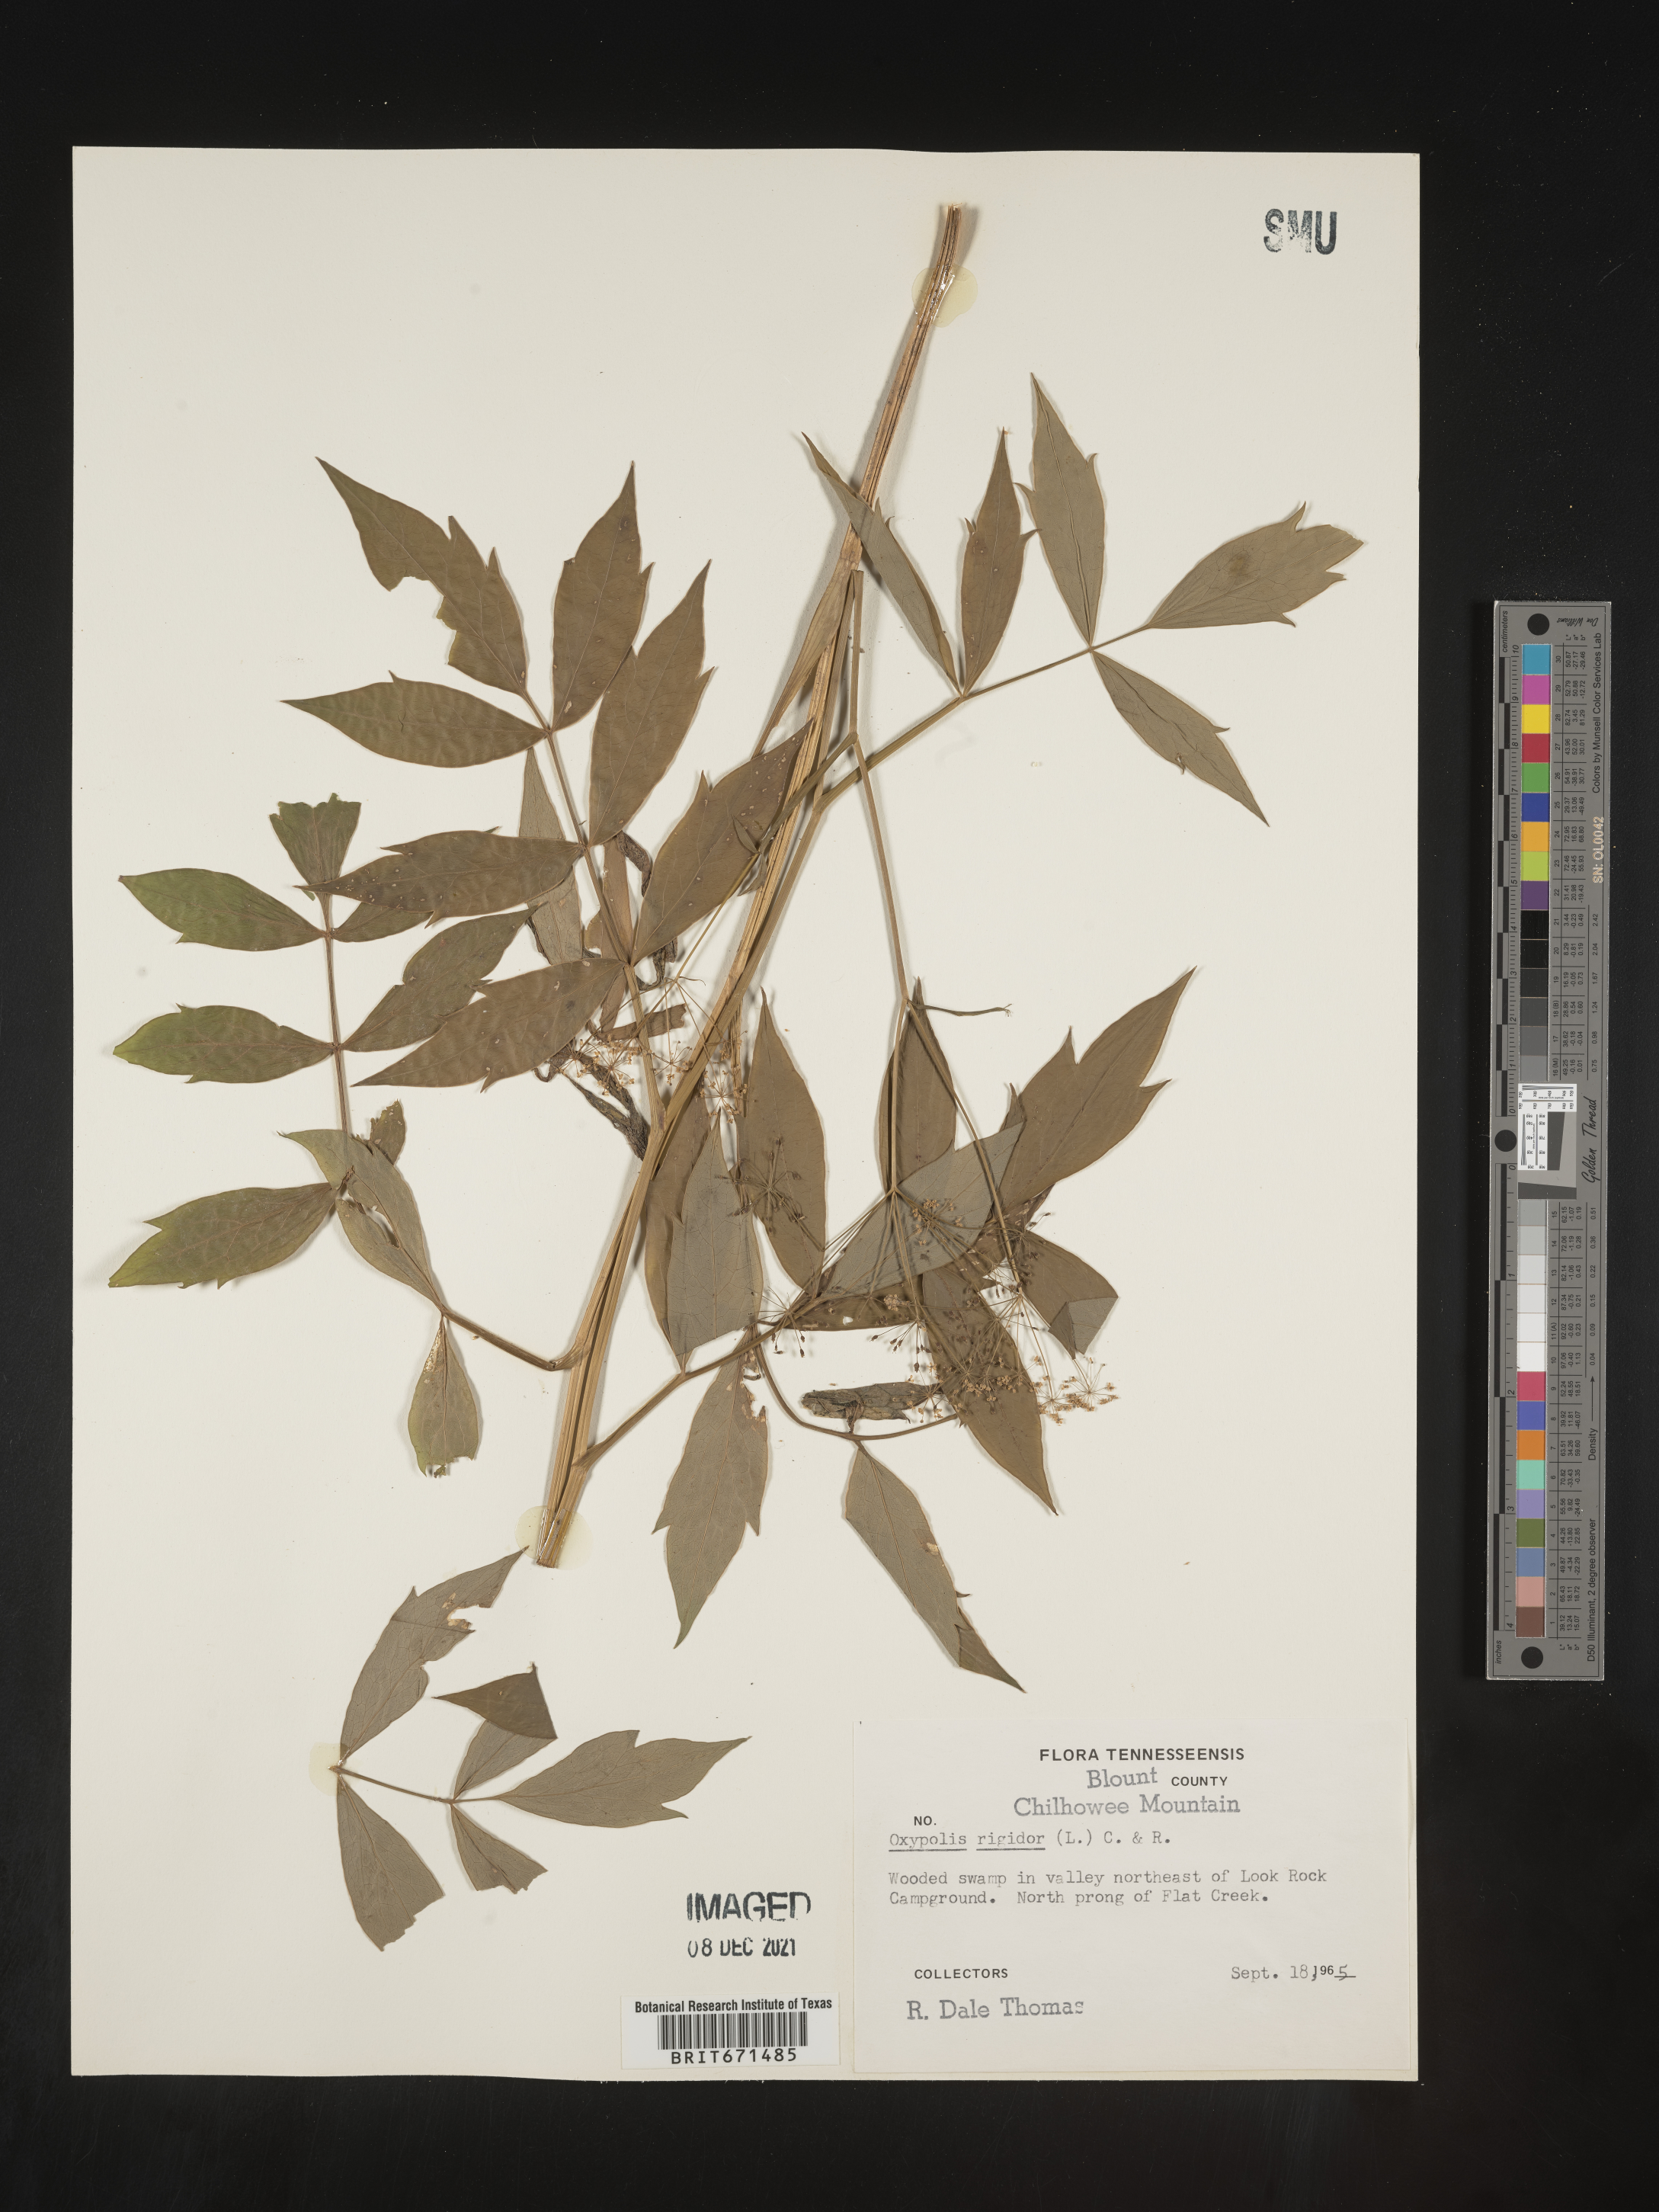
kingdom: Plantae
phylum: Tracheophyta
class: Magnoliopsida
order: Apiales
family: Apiaceae
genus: Oxypolis
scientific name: Oxypolis rigidior
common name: Cowbane
